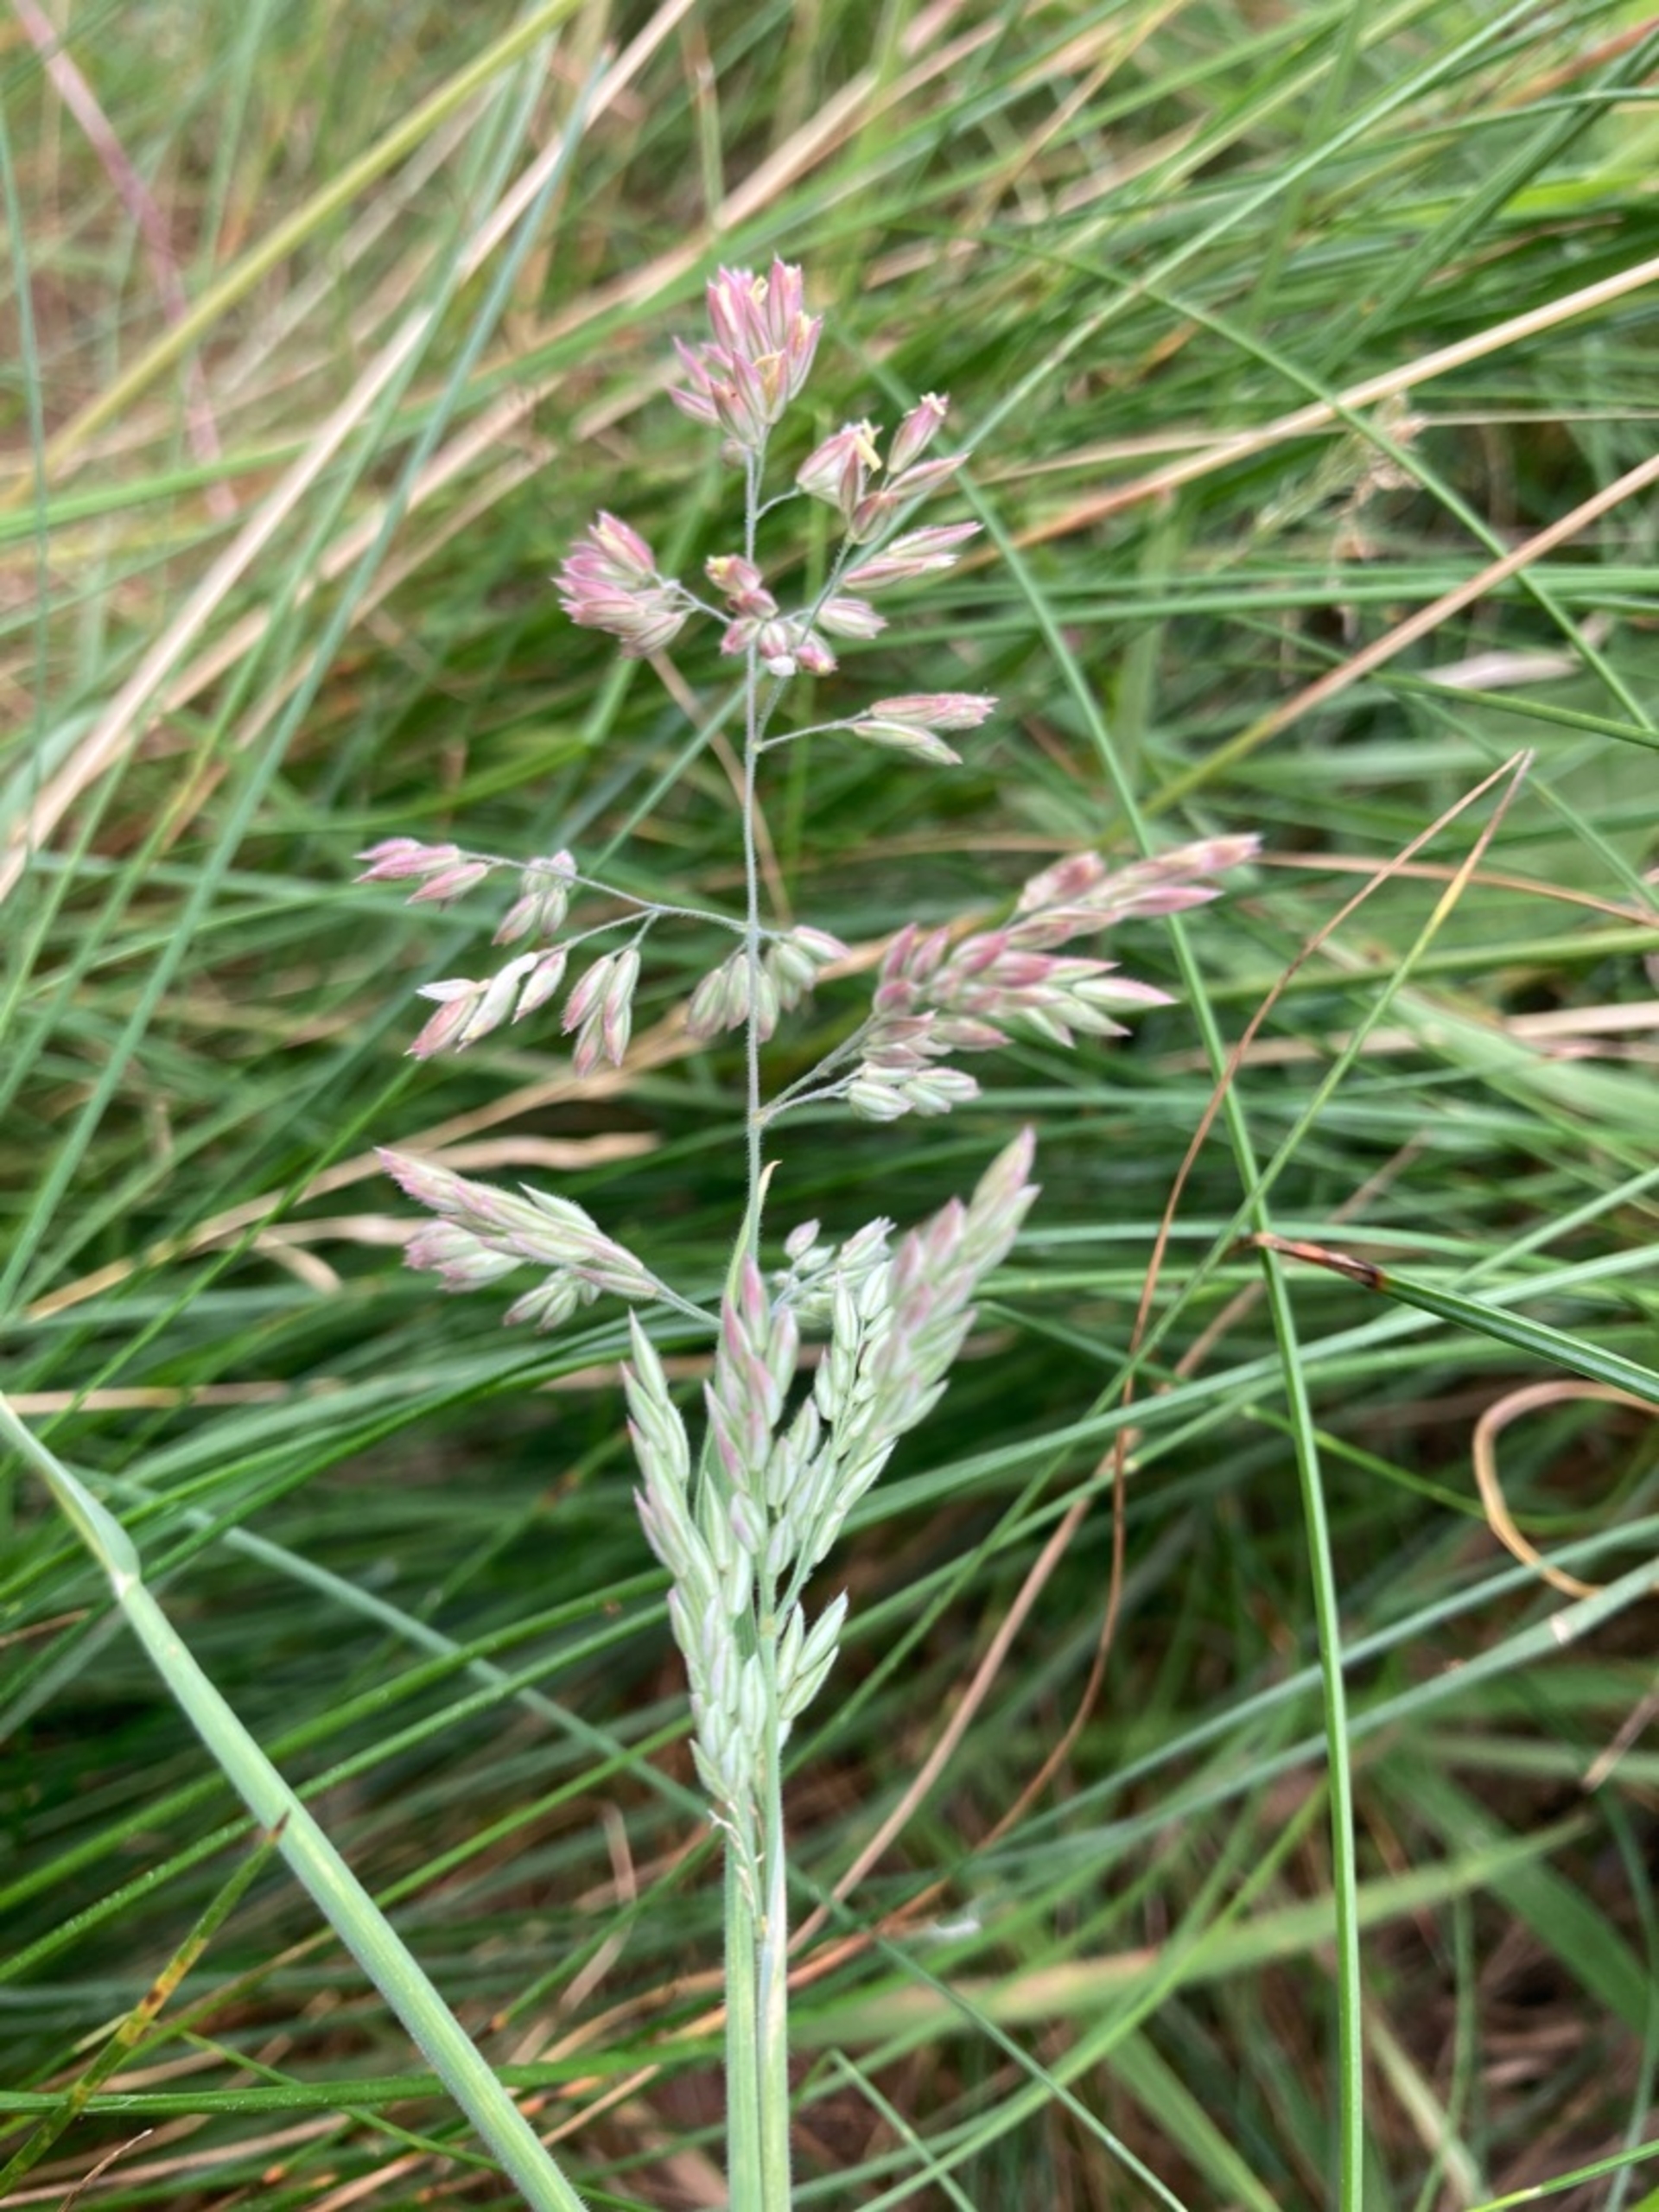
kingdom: Plantae
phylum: Tracheophyta
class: Liliopsida
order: Poales
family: Poaceae
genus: Holcus
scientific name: Holcus lanatus
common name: Fløjlsgræs
